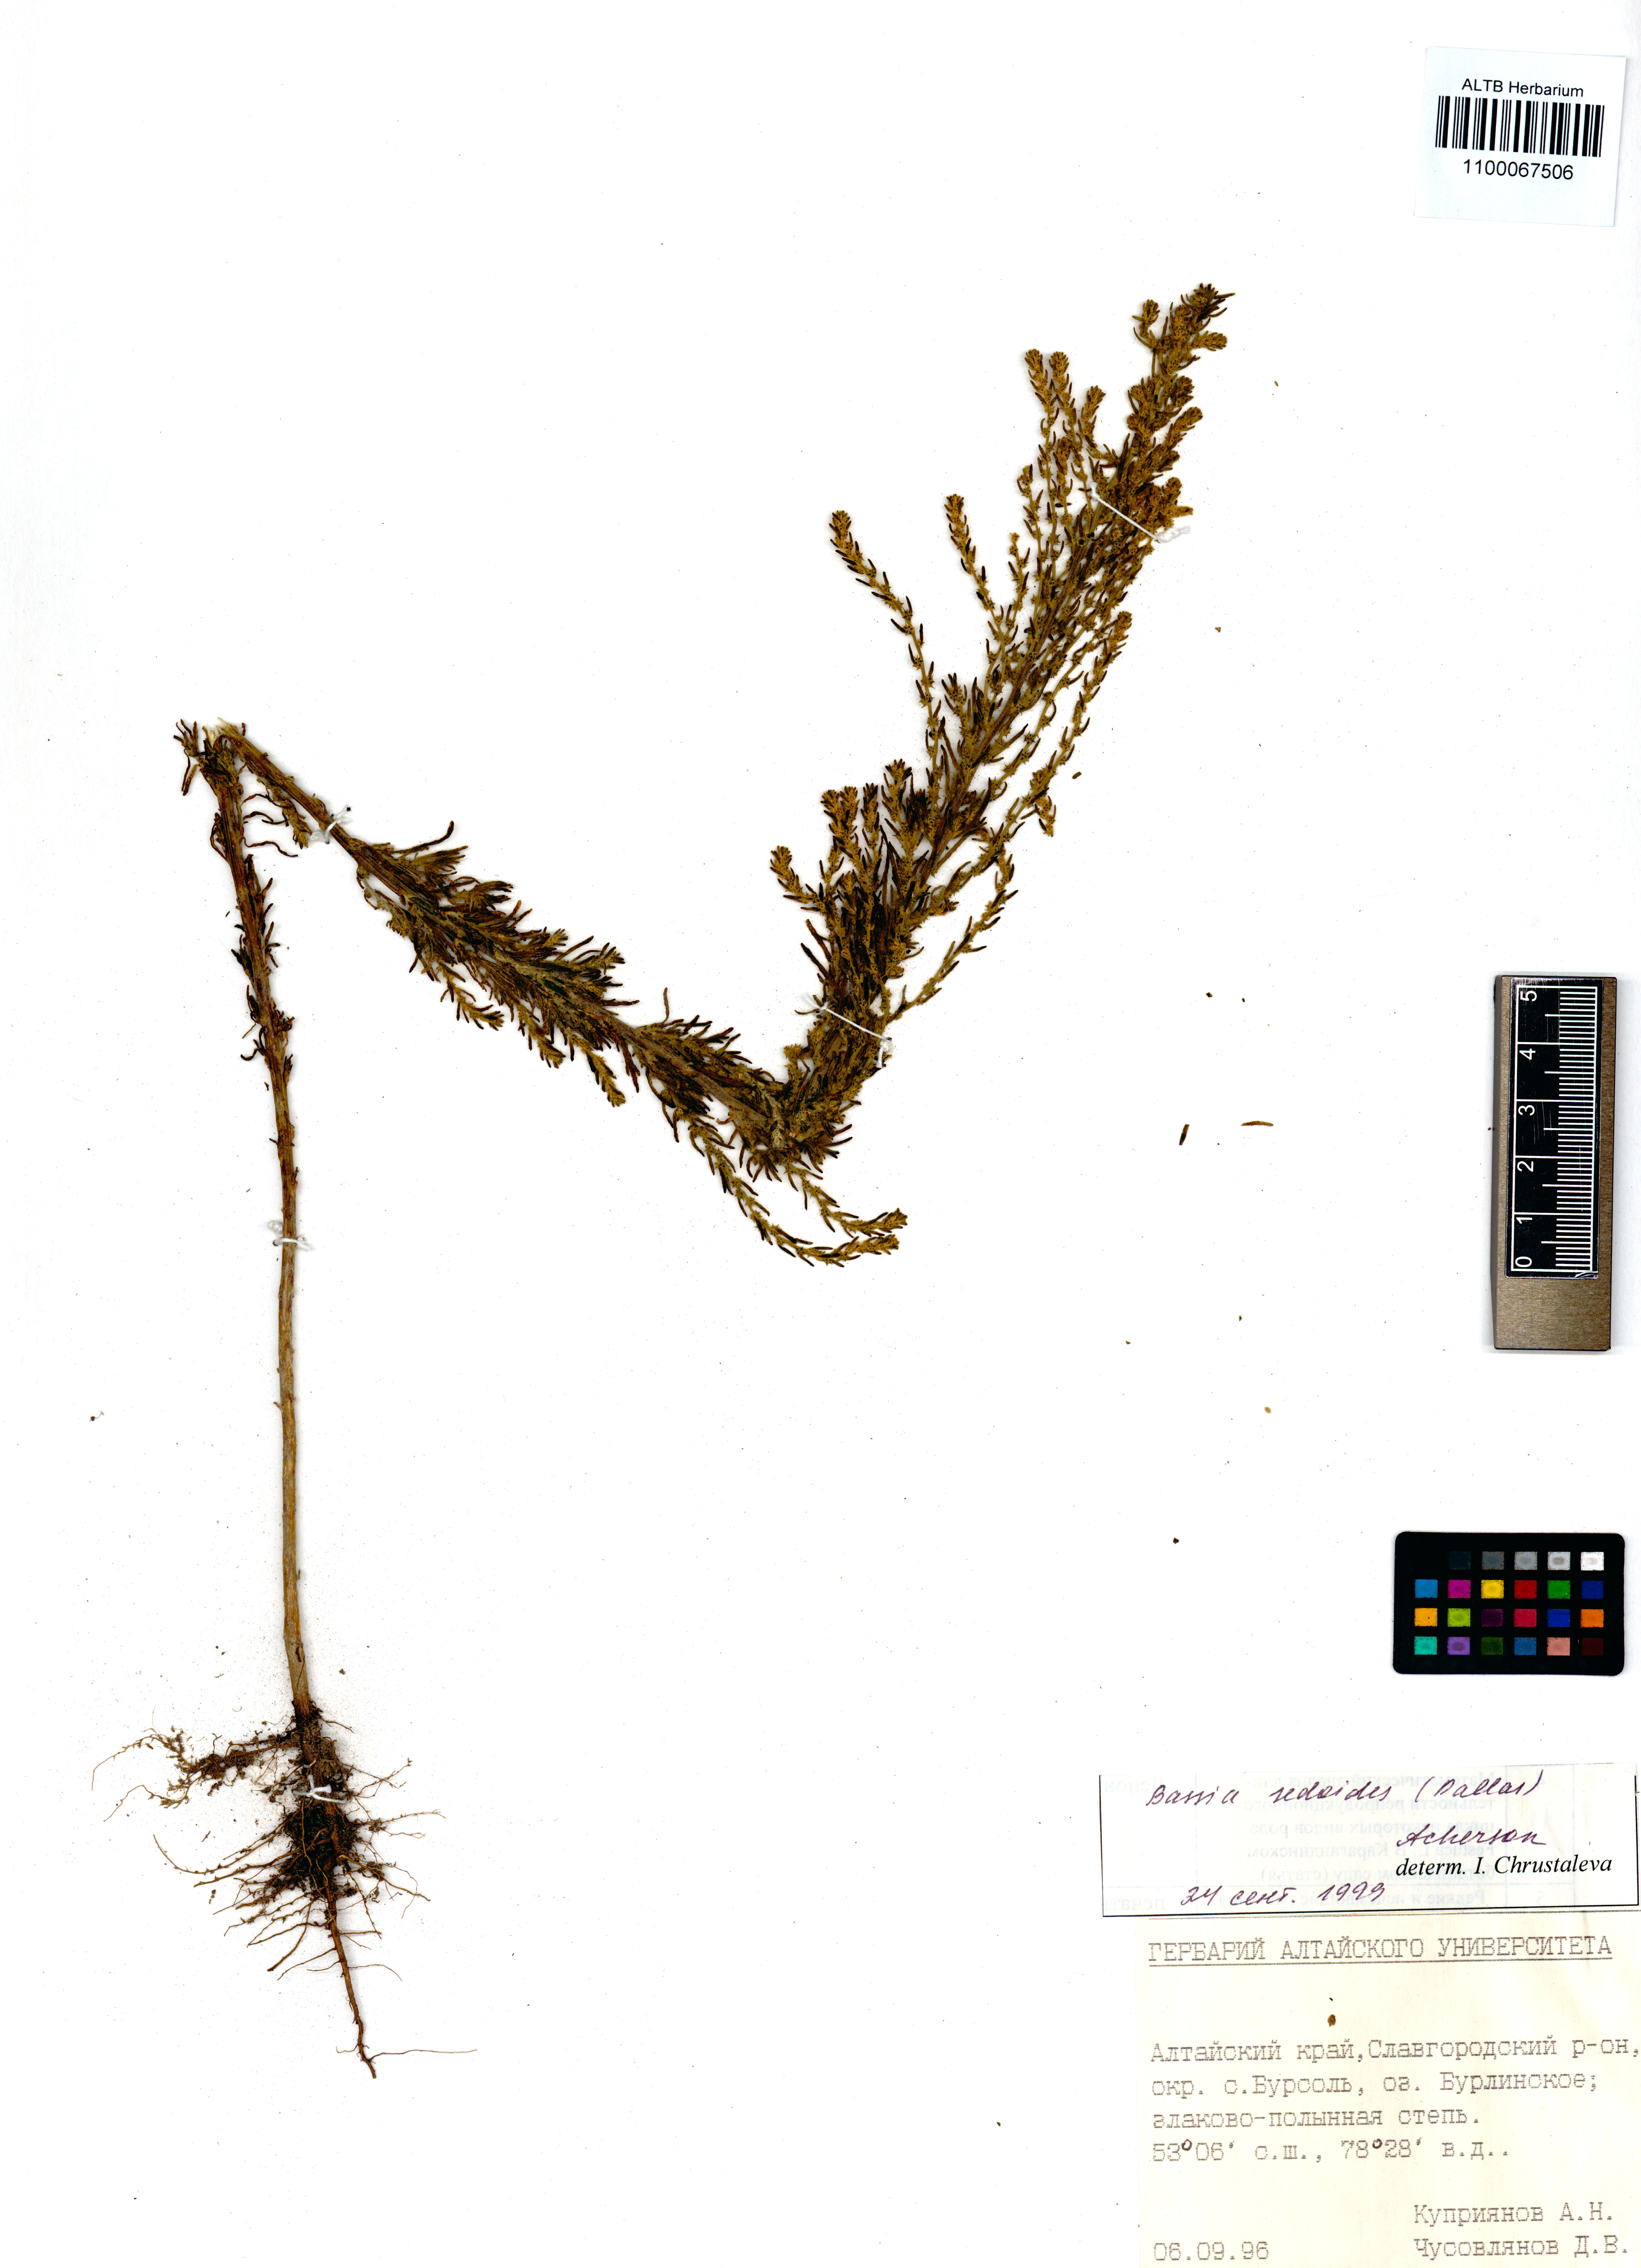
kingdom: Plantae
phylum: Tracheophyta
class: Magnoliopsida
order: Caryophyllales
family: Amaranthaceae
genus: Sedobassia
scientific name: Sedobassia sedoides
